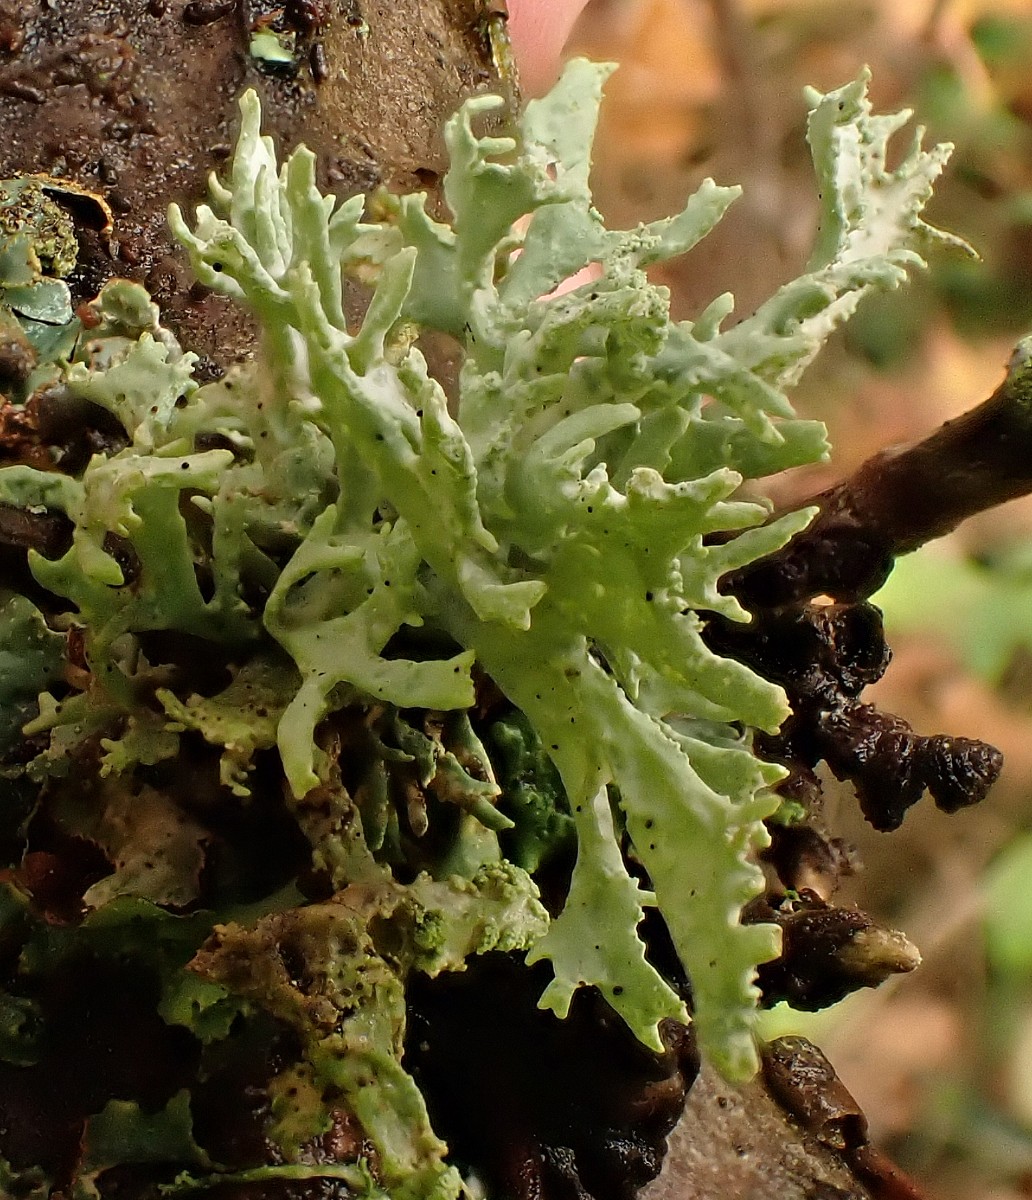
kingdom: Fungi
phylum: Ascomycota
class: Lecanoromycetes
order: Lecanorales
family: Parmeliaceae
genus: Evernia
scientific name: Evernia prunastri
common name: almindelig slåenlav
